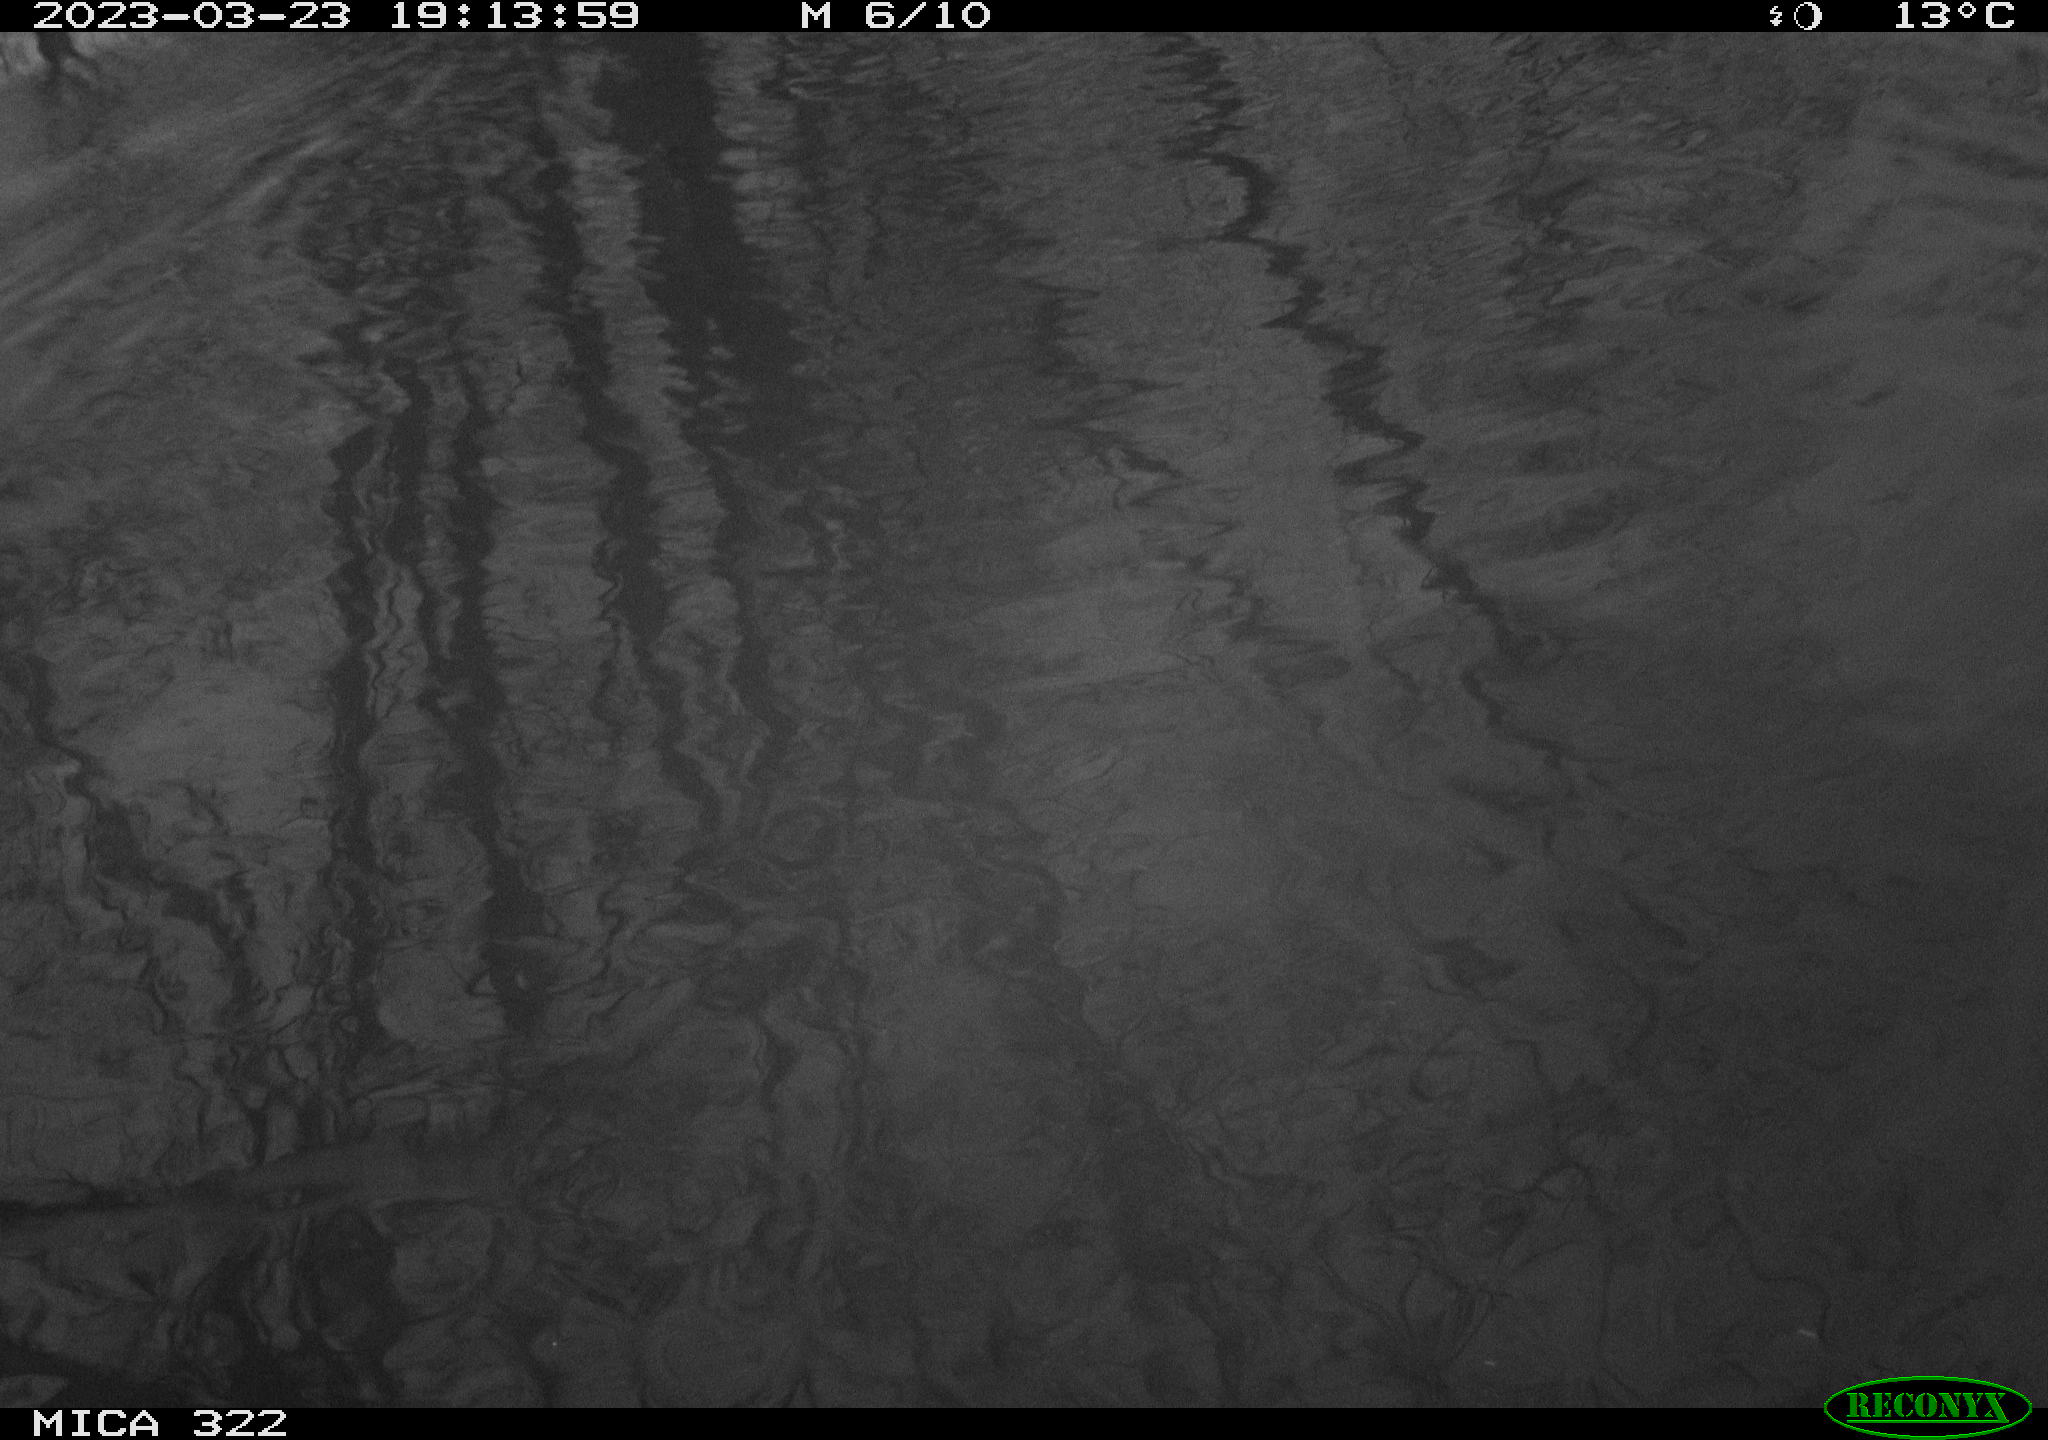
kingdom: Animalia
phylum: Chordata
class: Mammalia
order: Rodentia
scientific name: Rodentia
